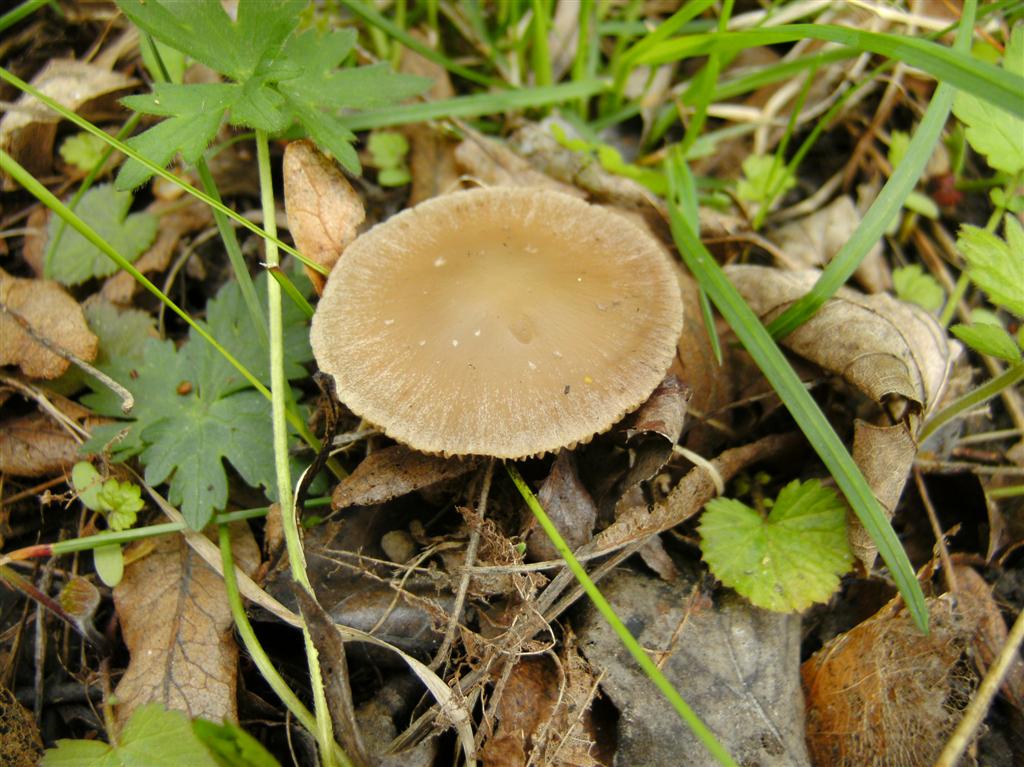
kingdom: Fungi
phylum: Basidiomycota
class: Agaricomycetes
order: Agaricales
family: Psathyrellaceae
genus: Psathyrella
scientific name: Psathyrella spadiceogrisea
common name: gråbrun mørkhat
